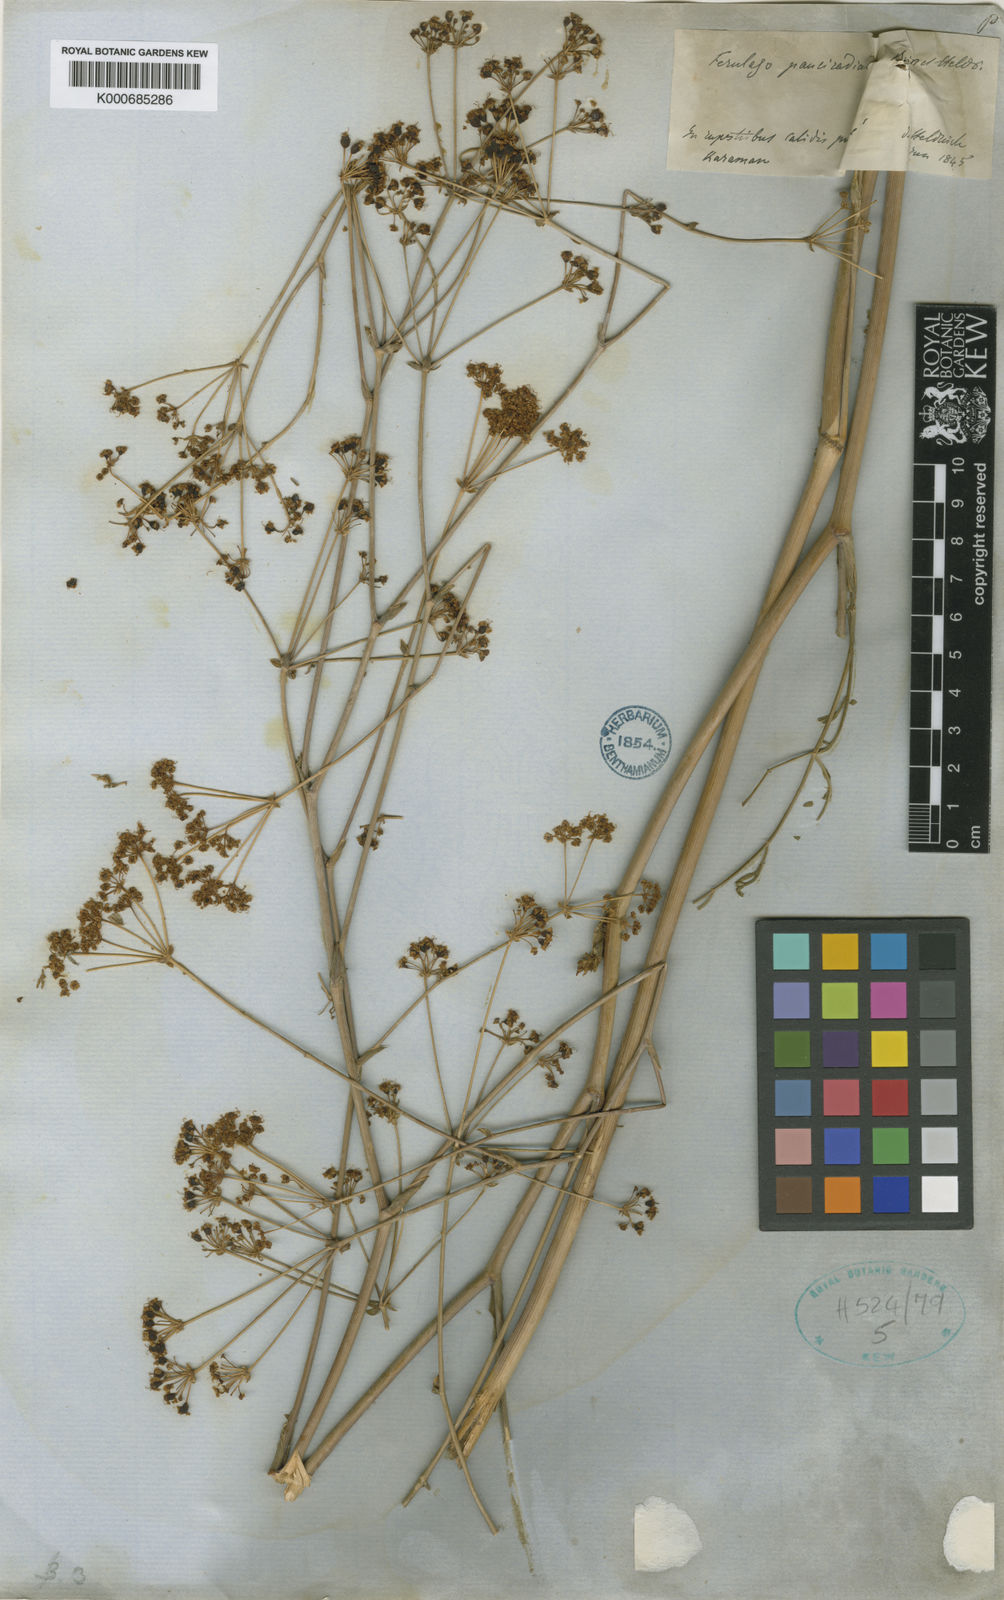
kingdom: Plantae
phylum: Tracheophyta
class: Magnoliopsida
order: Apiales
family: Apiaceae
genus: Ferulago
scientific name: Ferulago armena
